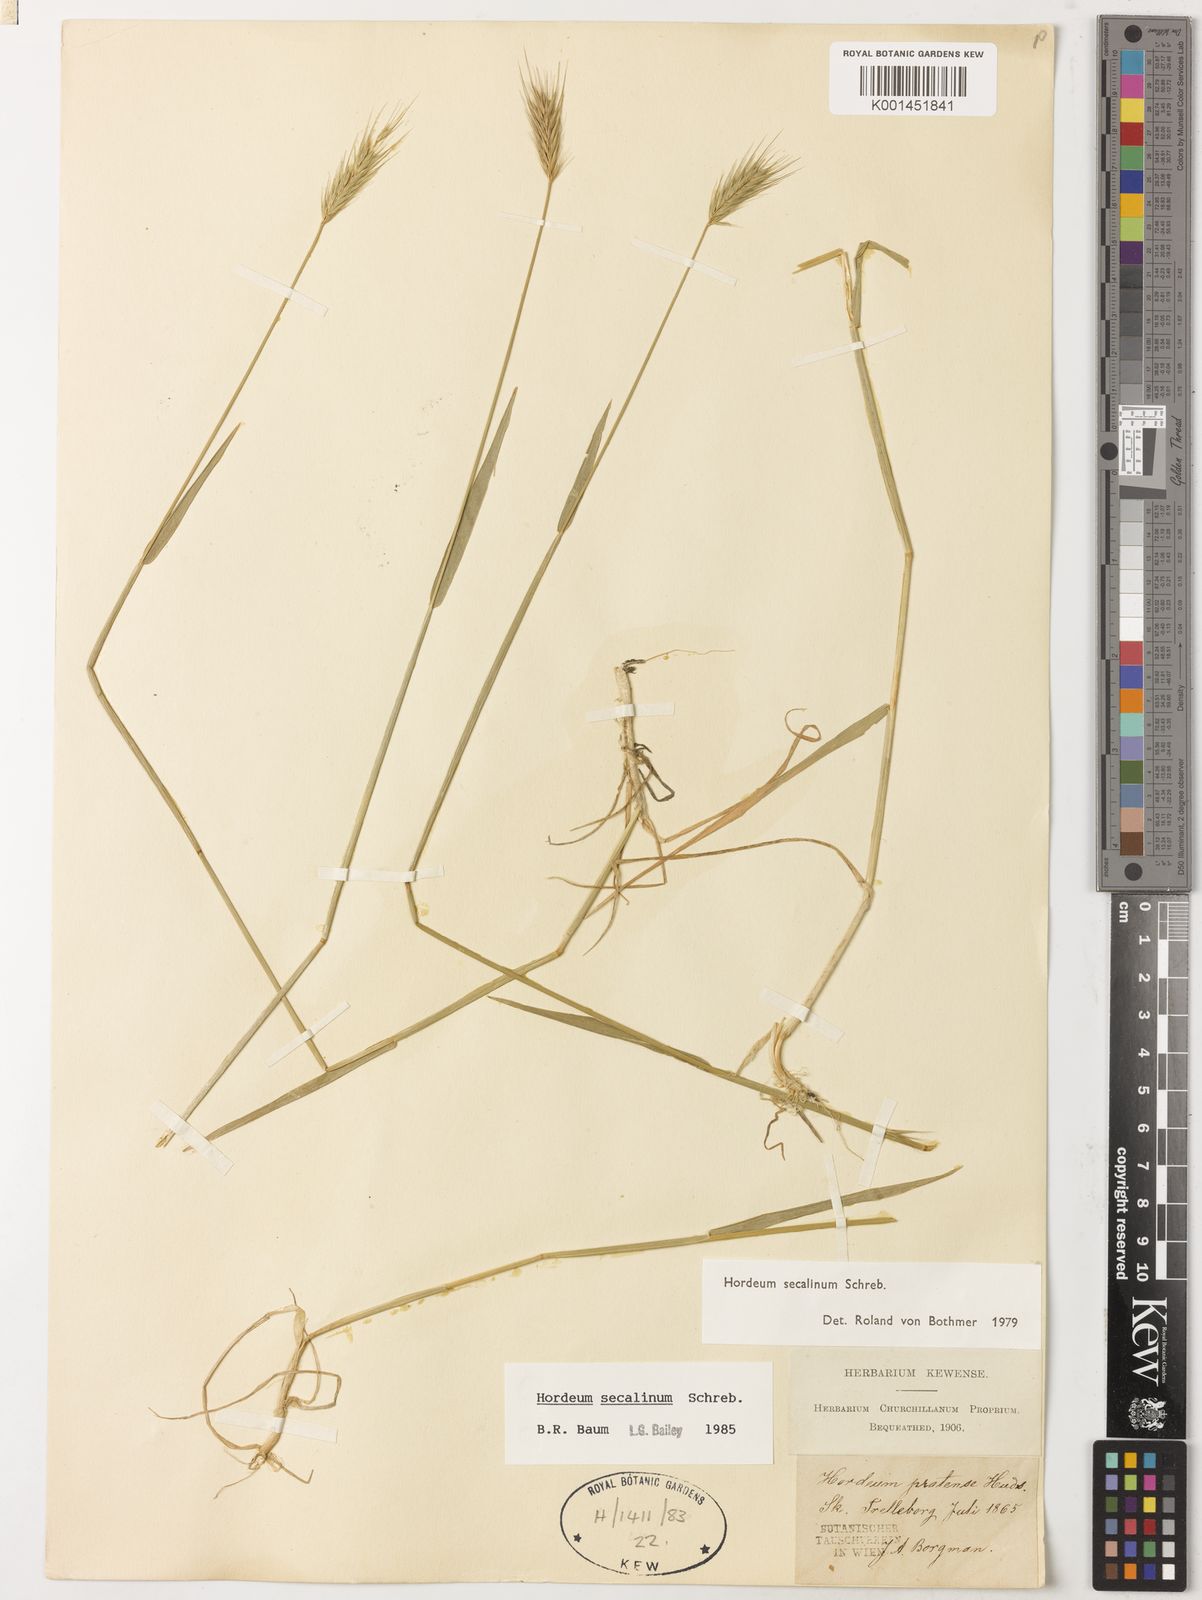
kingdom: Plantae
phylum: Tracheophyta
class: Liliopsida
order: Poales
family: Poaceae
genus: Hordeum
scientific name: Hordeum secalinum
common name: Meadow barley
